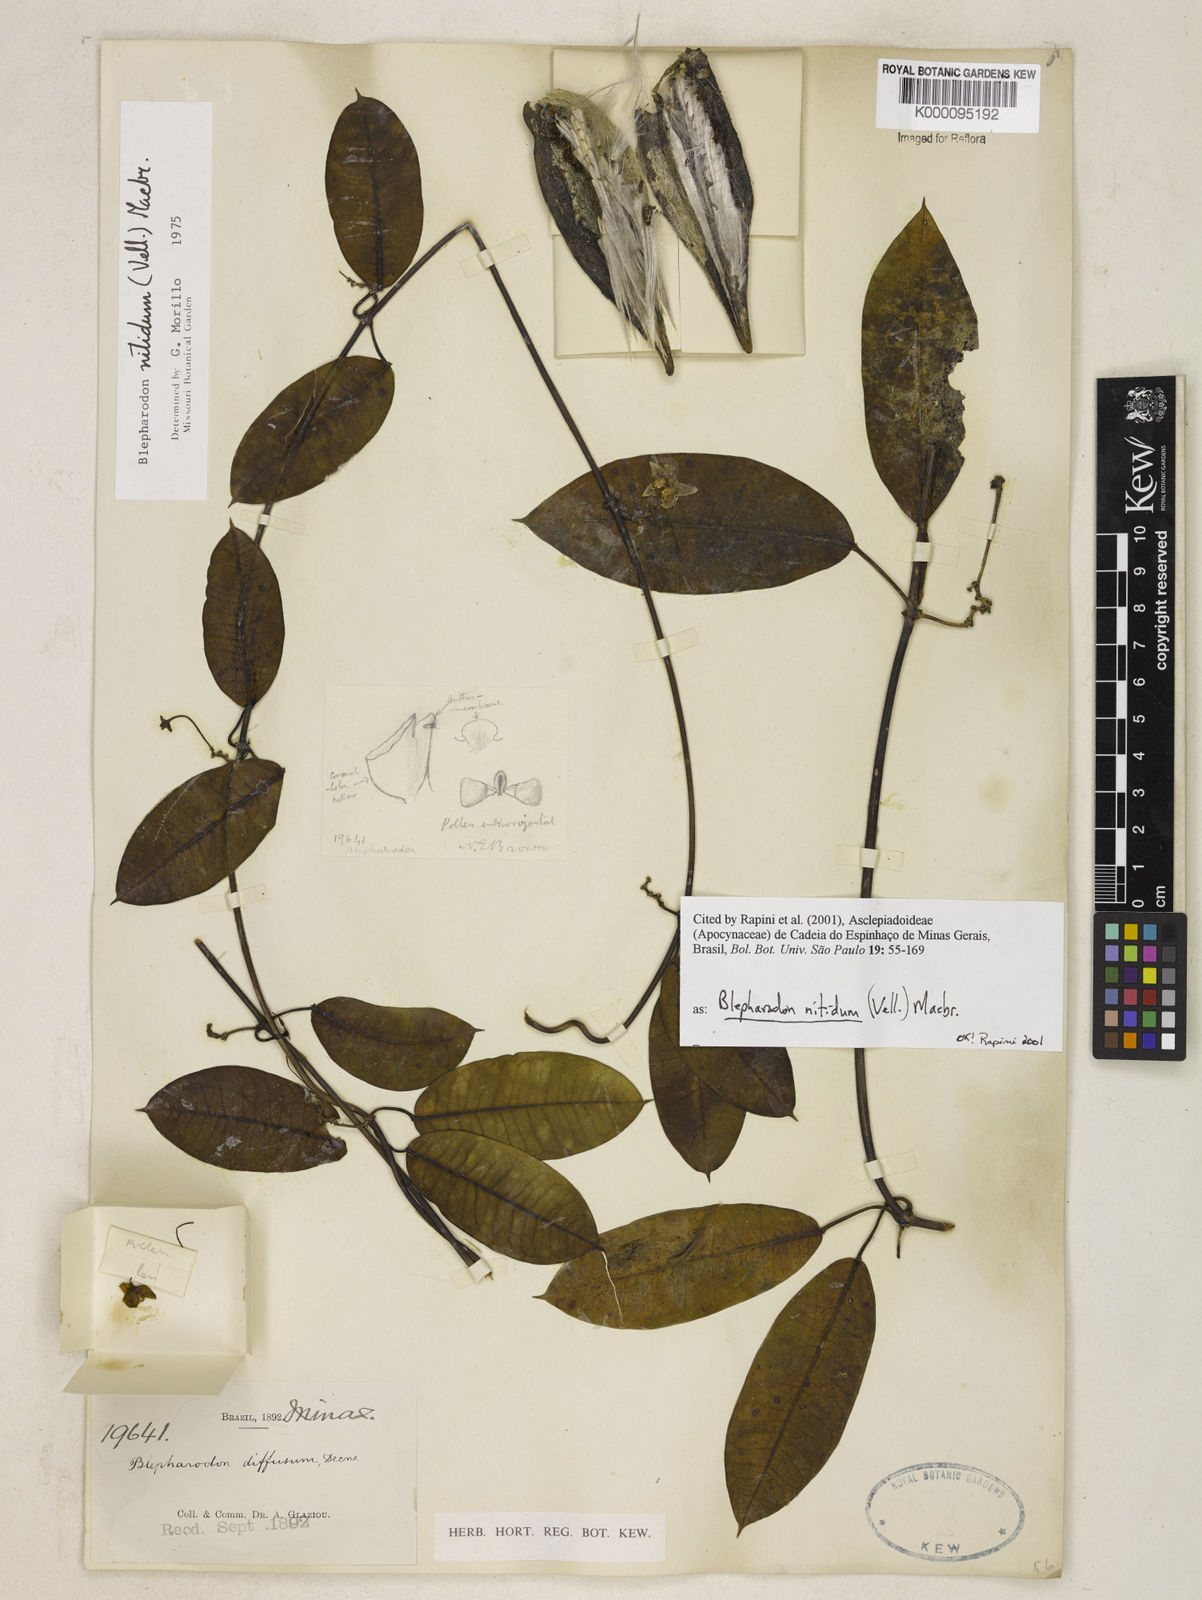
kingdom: Plantae
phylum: Tracheophyta
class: Magnoliopsida
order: Gentianales
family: Apocynaceae
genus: Blepharodon
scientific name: Blepharodon pictum
